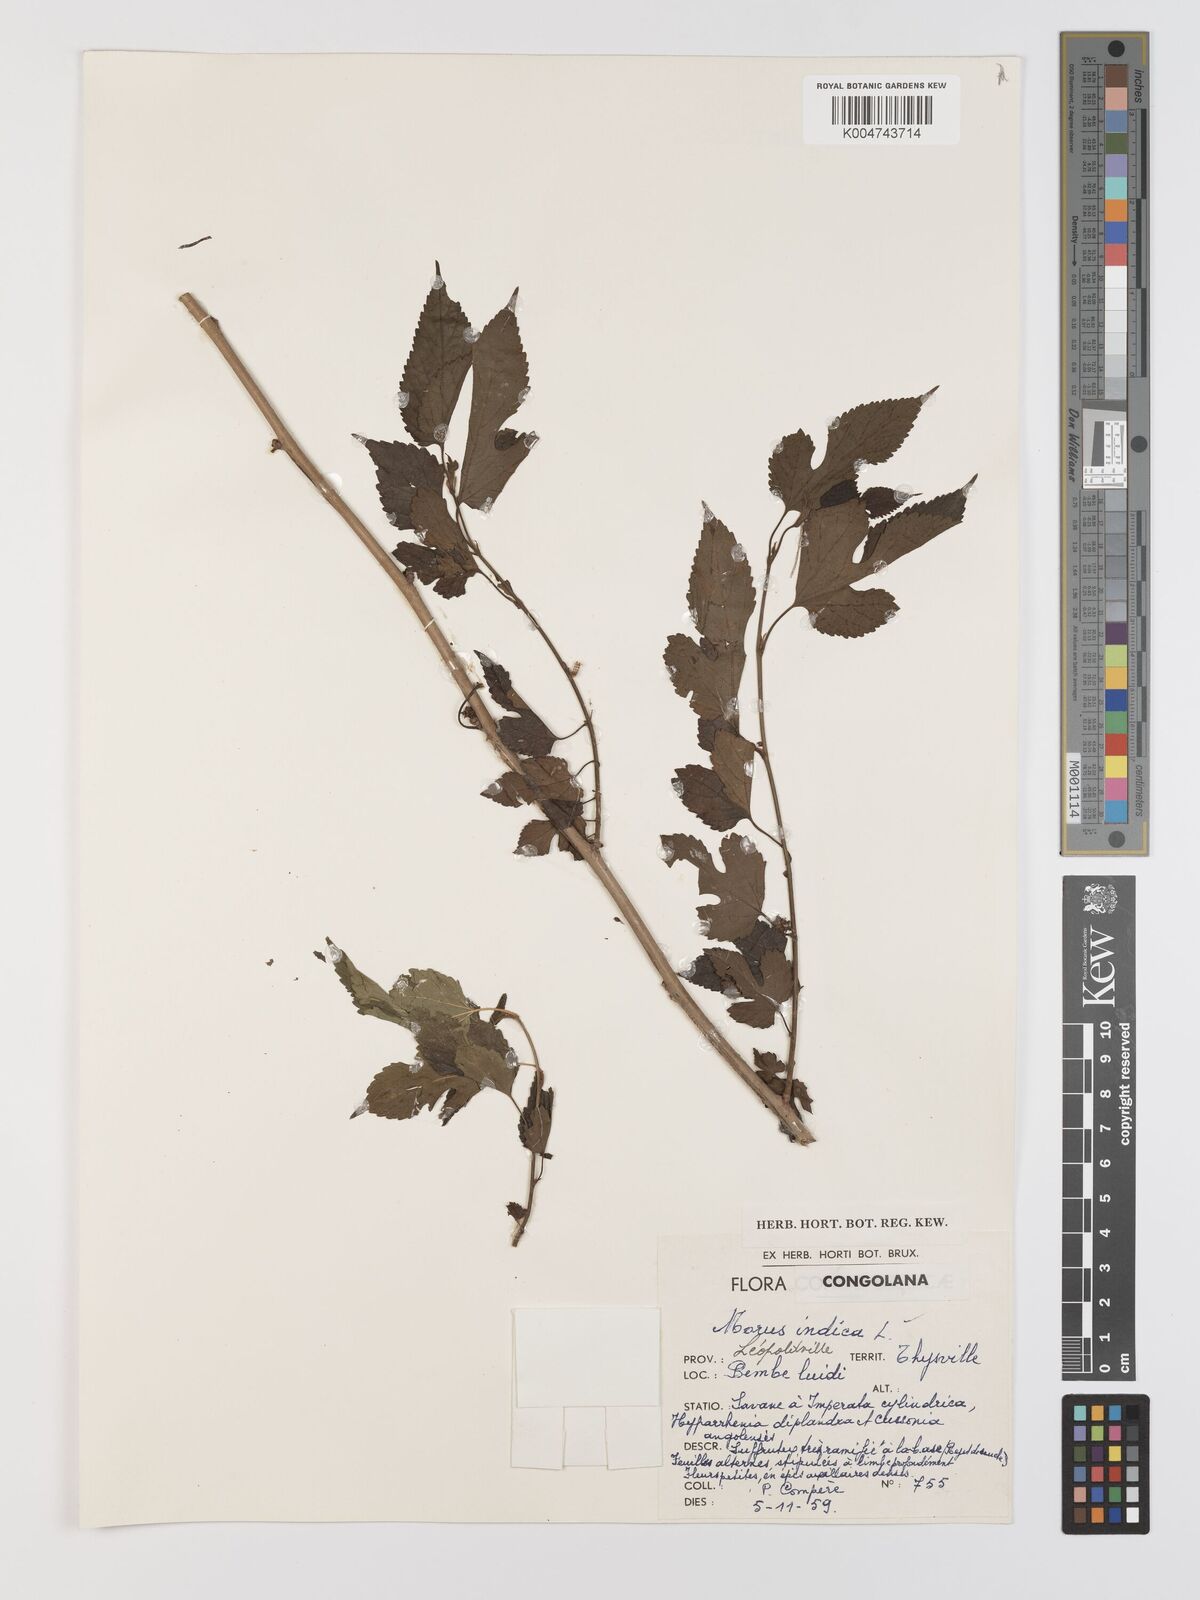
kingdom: Plantae
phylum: Tracheophyta
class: Magnoliopsida
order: Rosales
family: Moraceae
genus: Morus
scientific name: Morus indica
